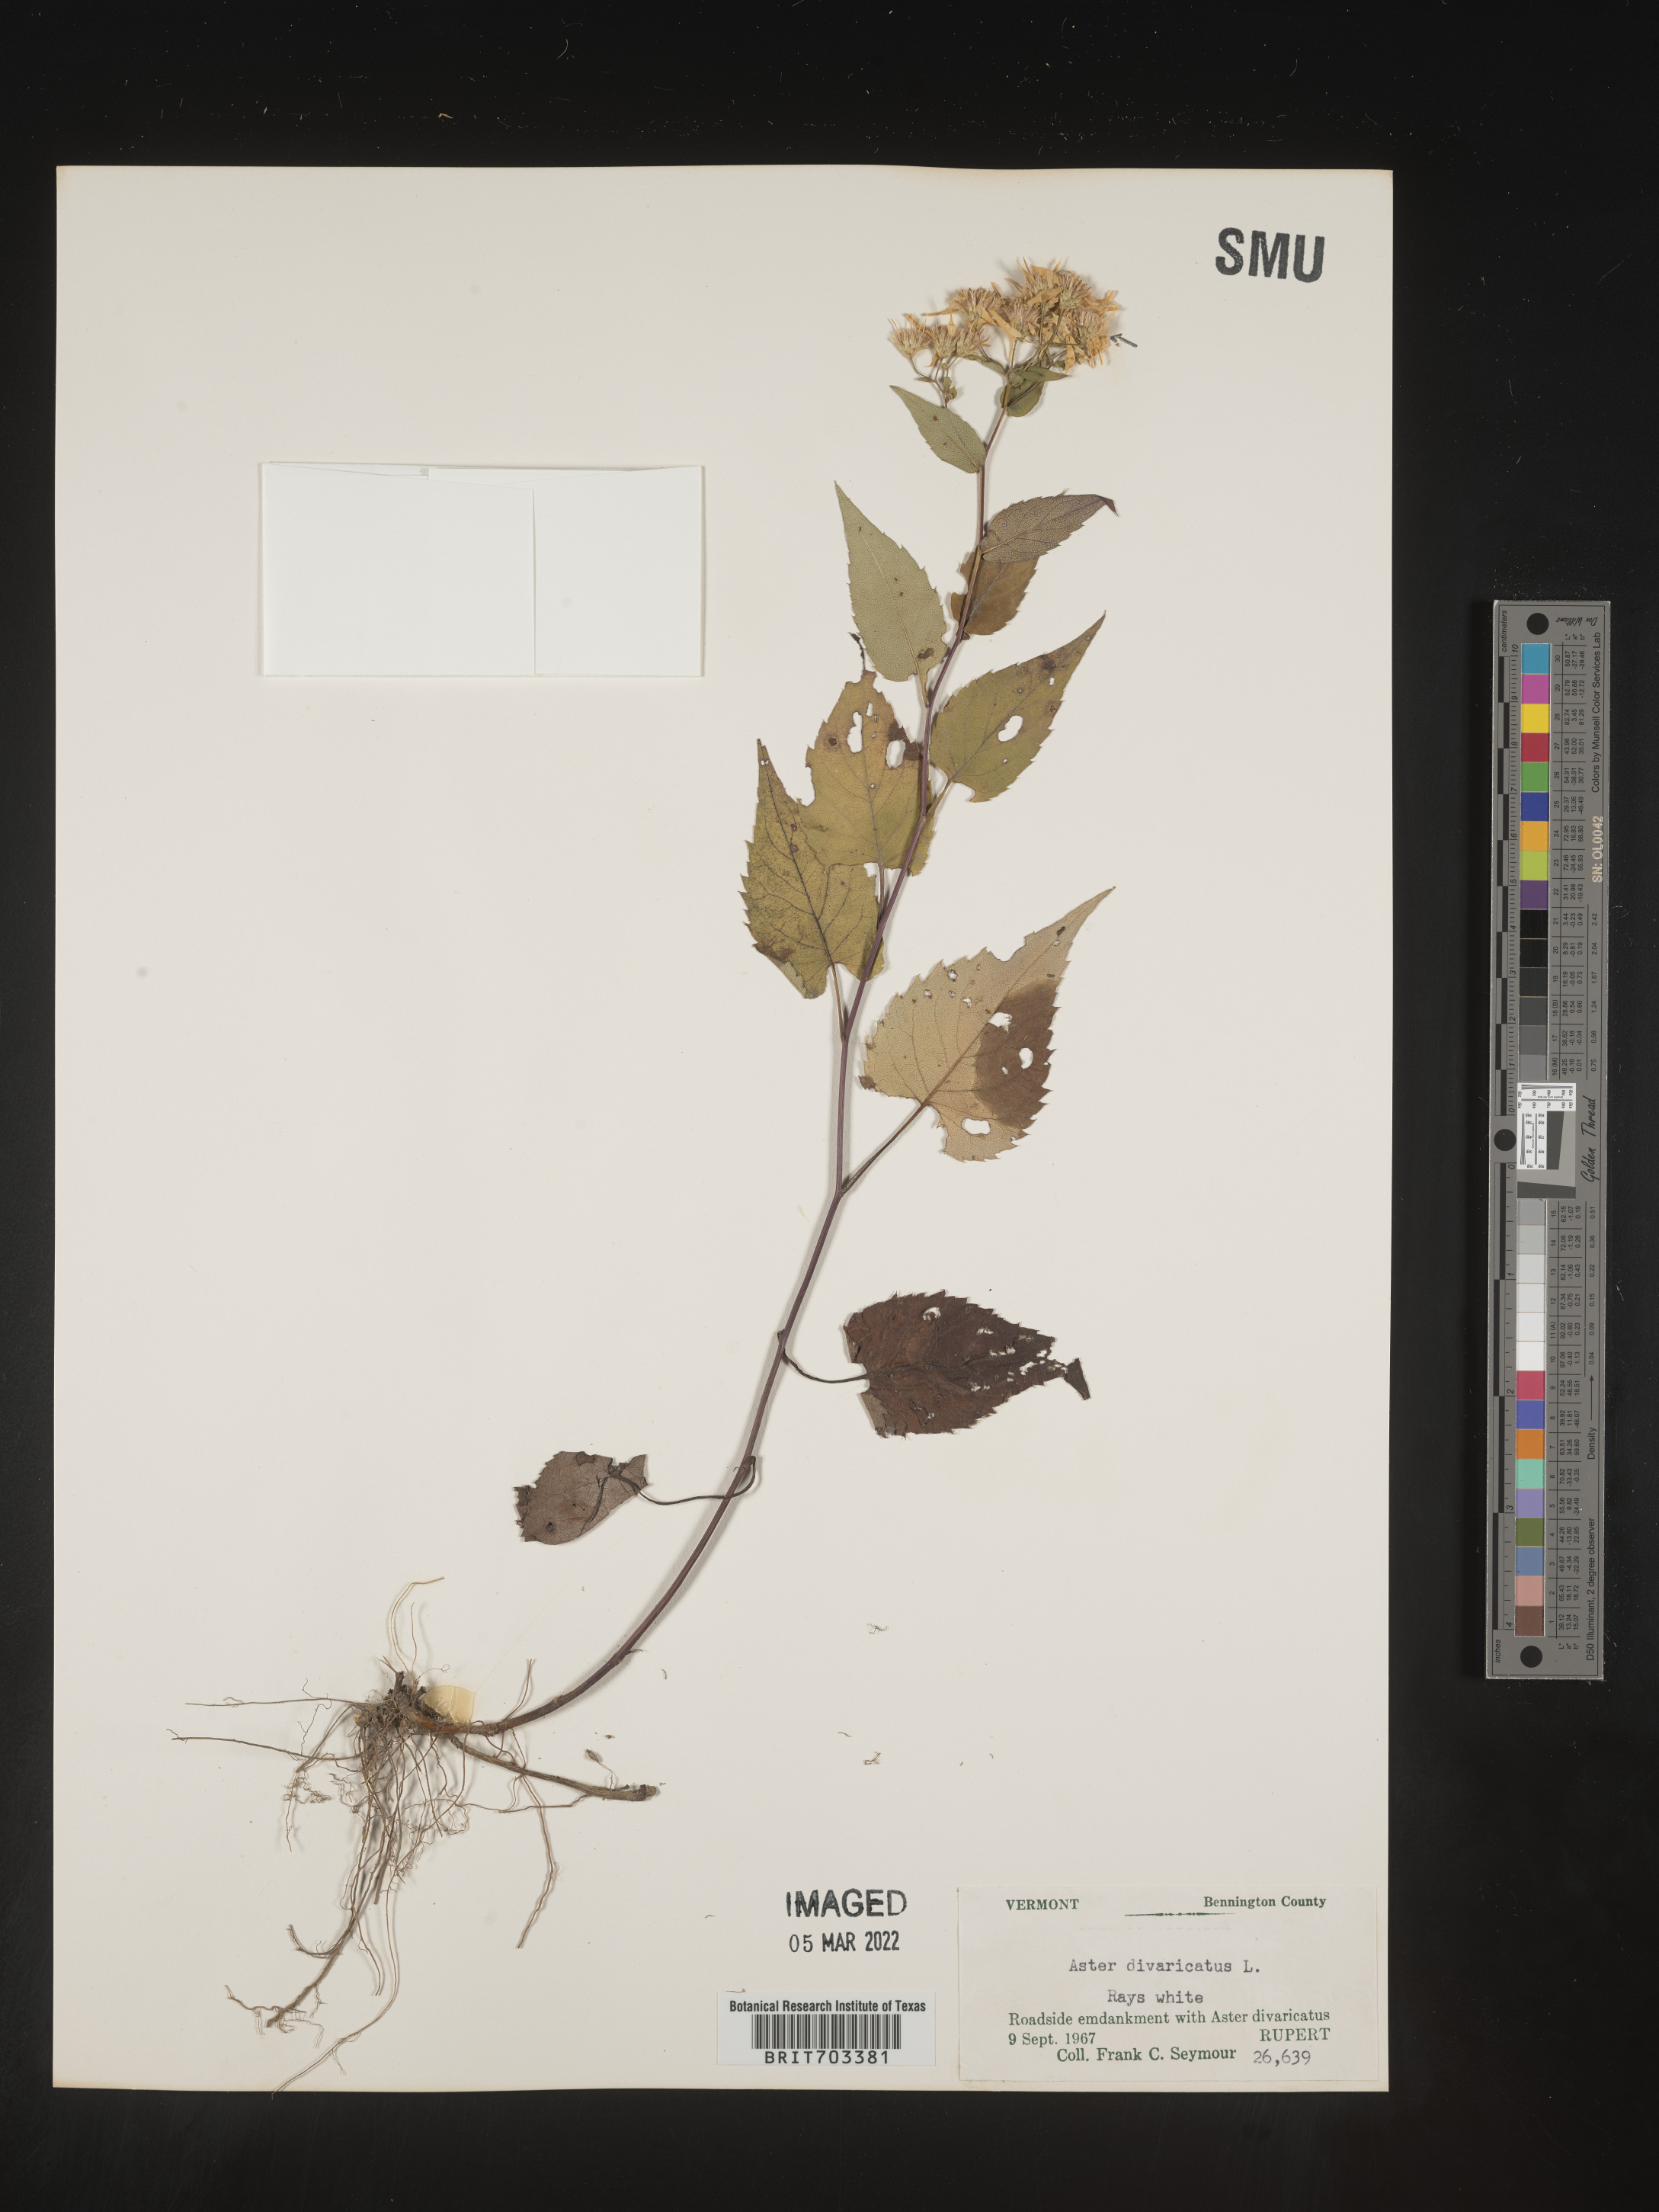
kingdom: Plantae
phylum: Tracheophyta
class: Magnoliopsida
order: Asterales
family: Asteraceae
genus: Eurybia
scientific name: Eurybia divaricata
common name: White wood aster
